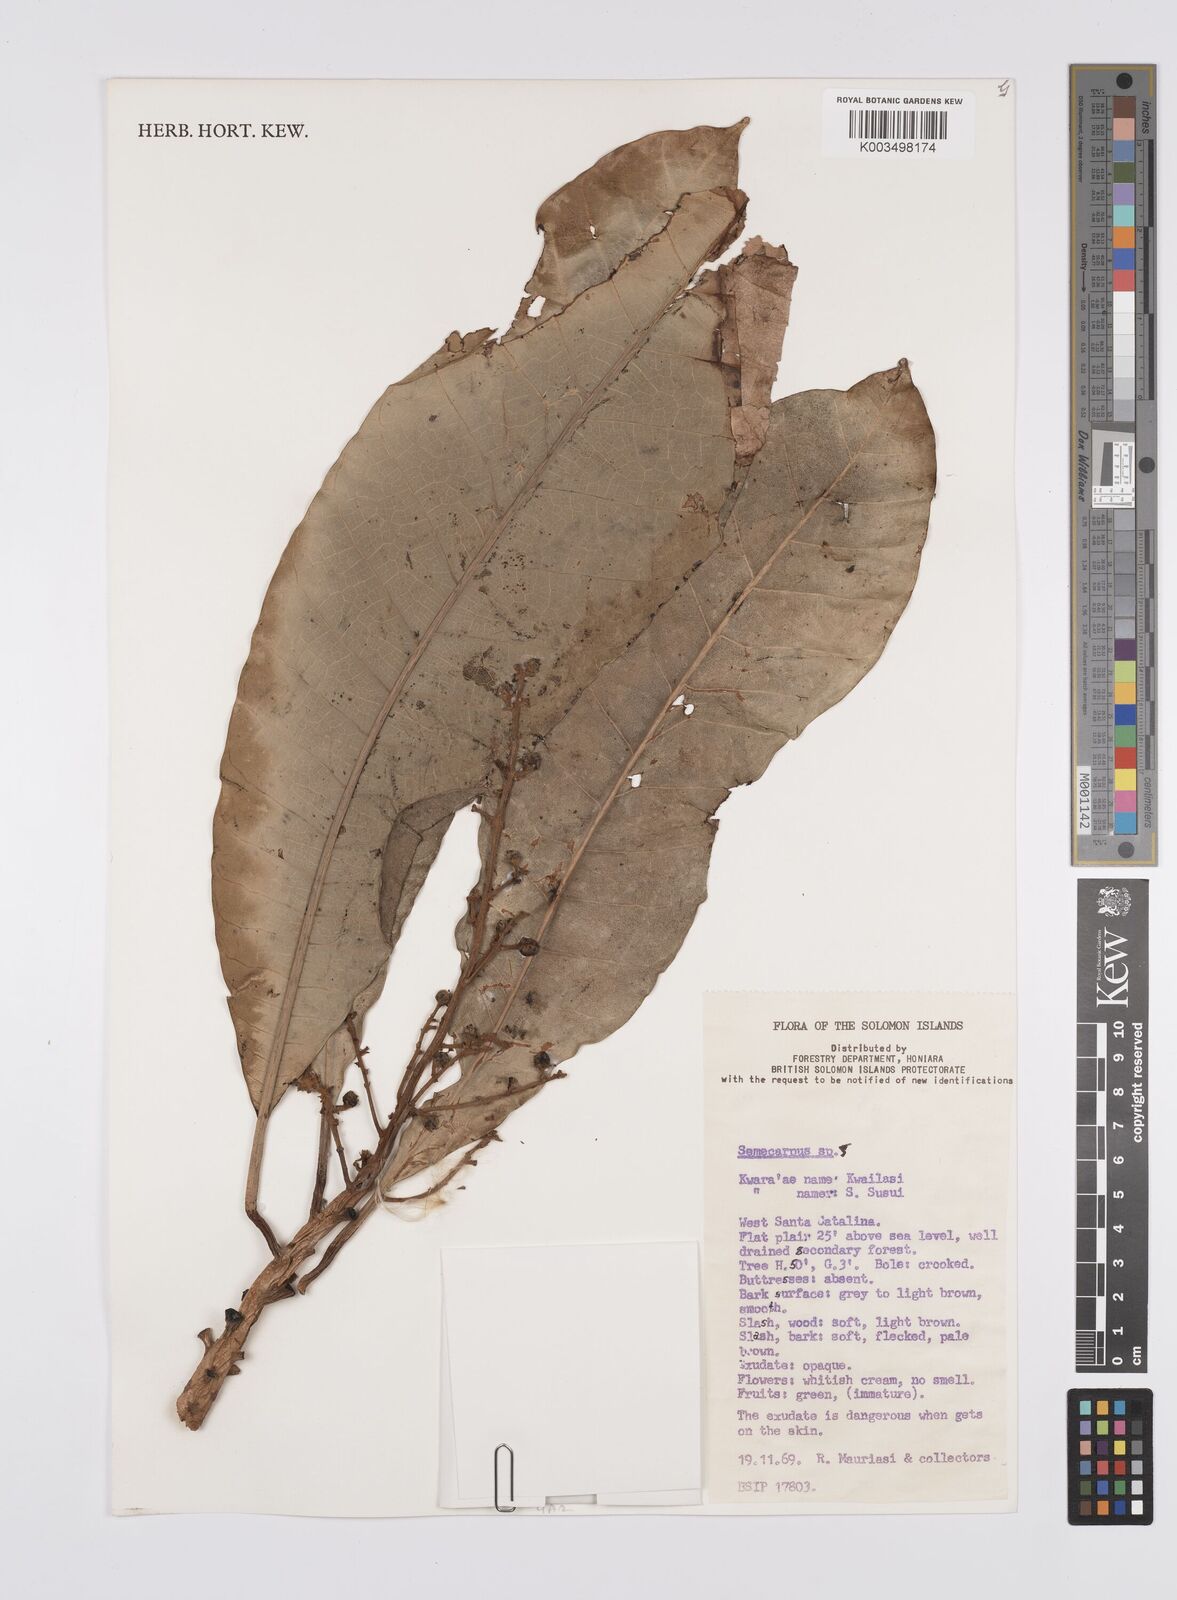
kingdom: Plantae
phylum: Tracheophyta
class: Magnoliopsida
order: Sapindales
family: Anacardiaceae
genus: Semecarpus
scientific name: Semecarpus
